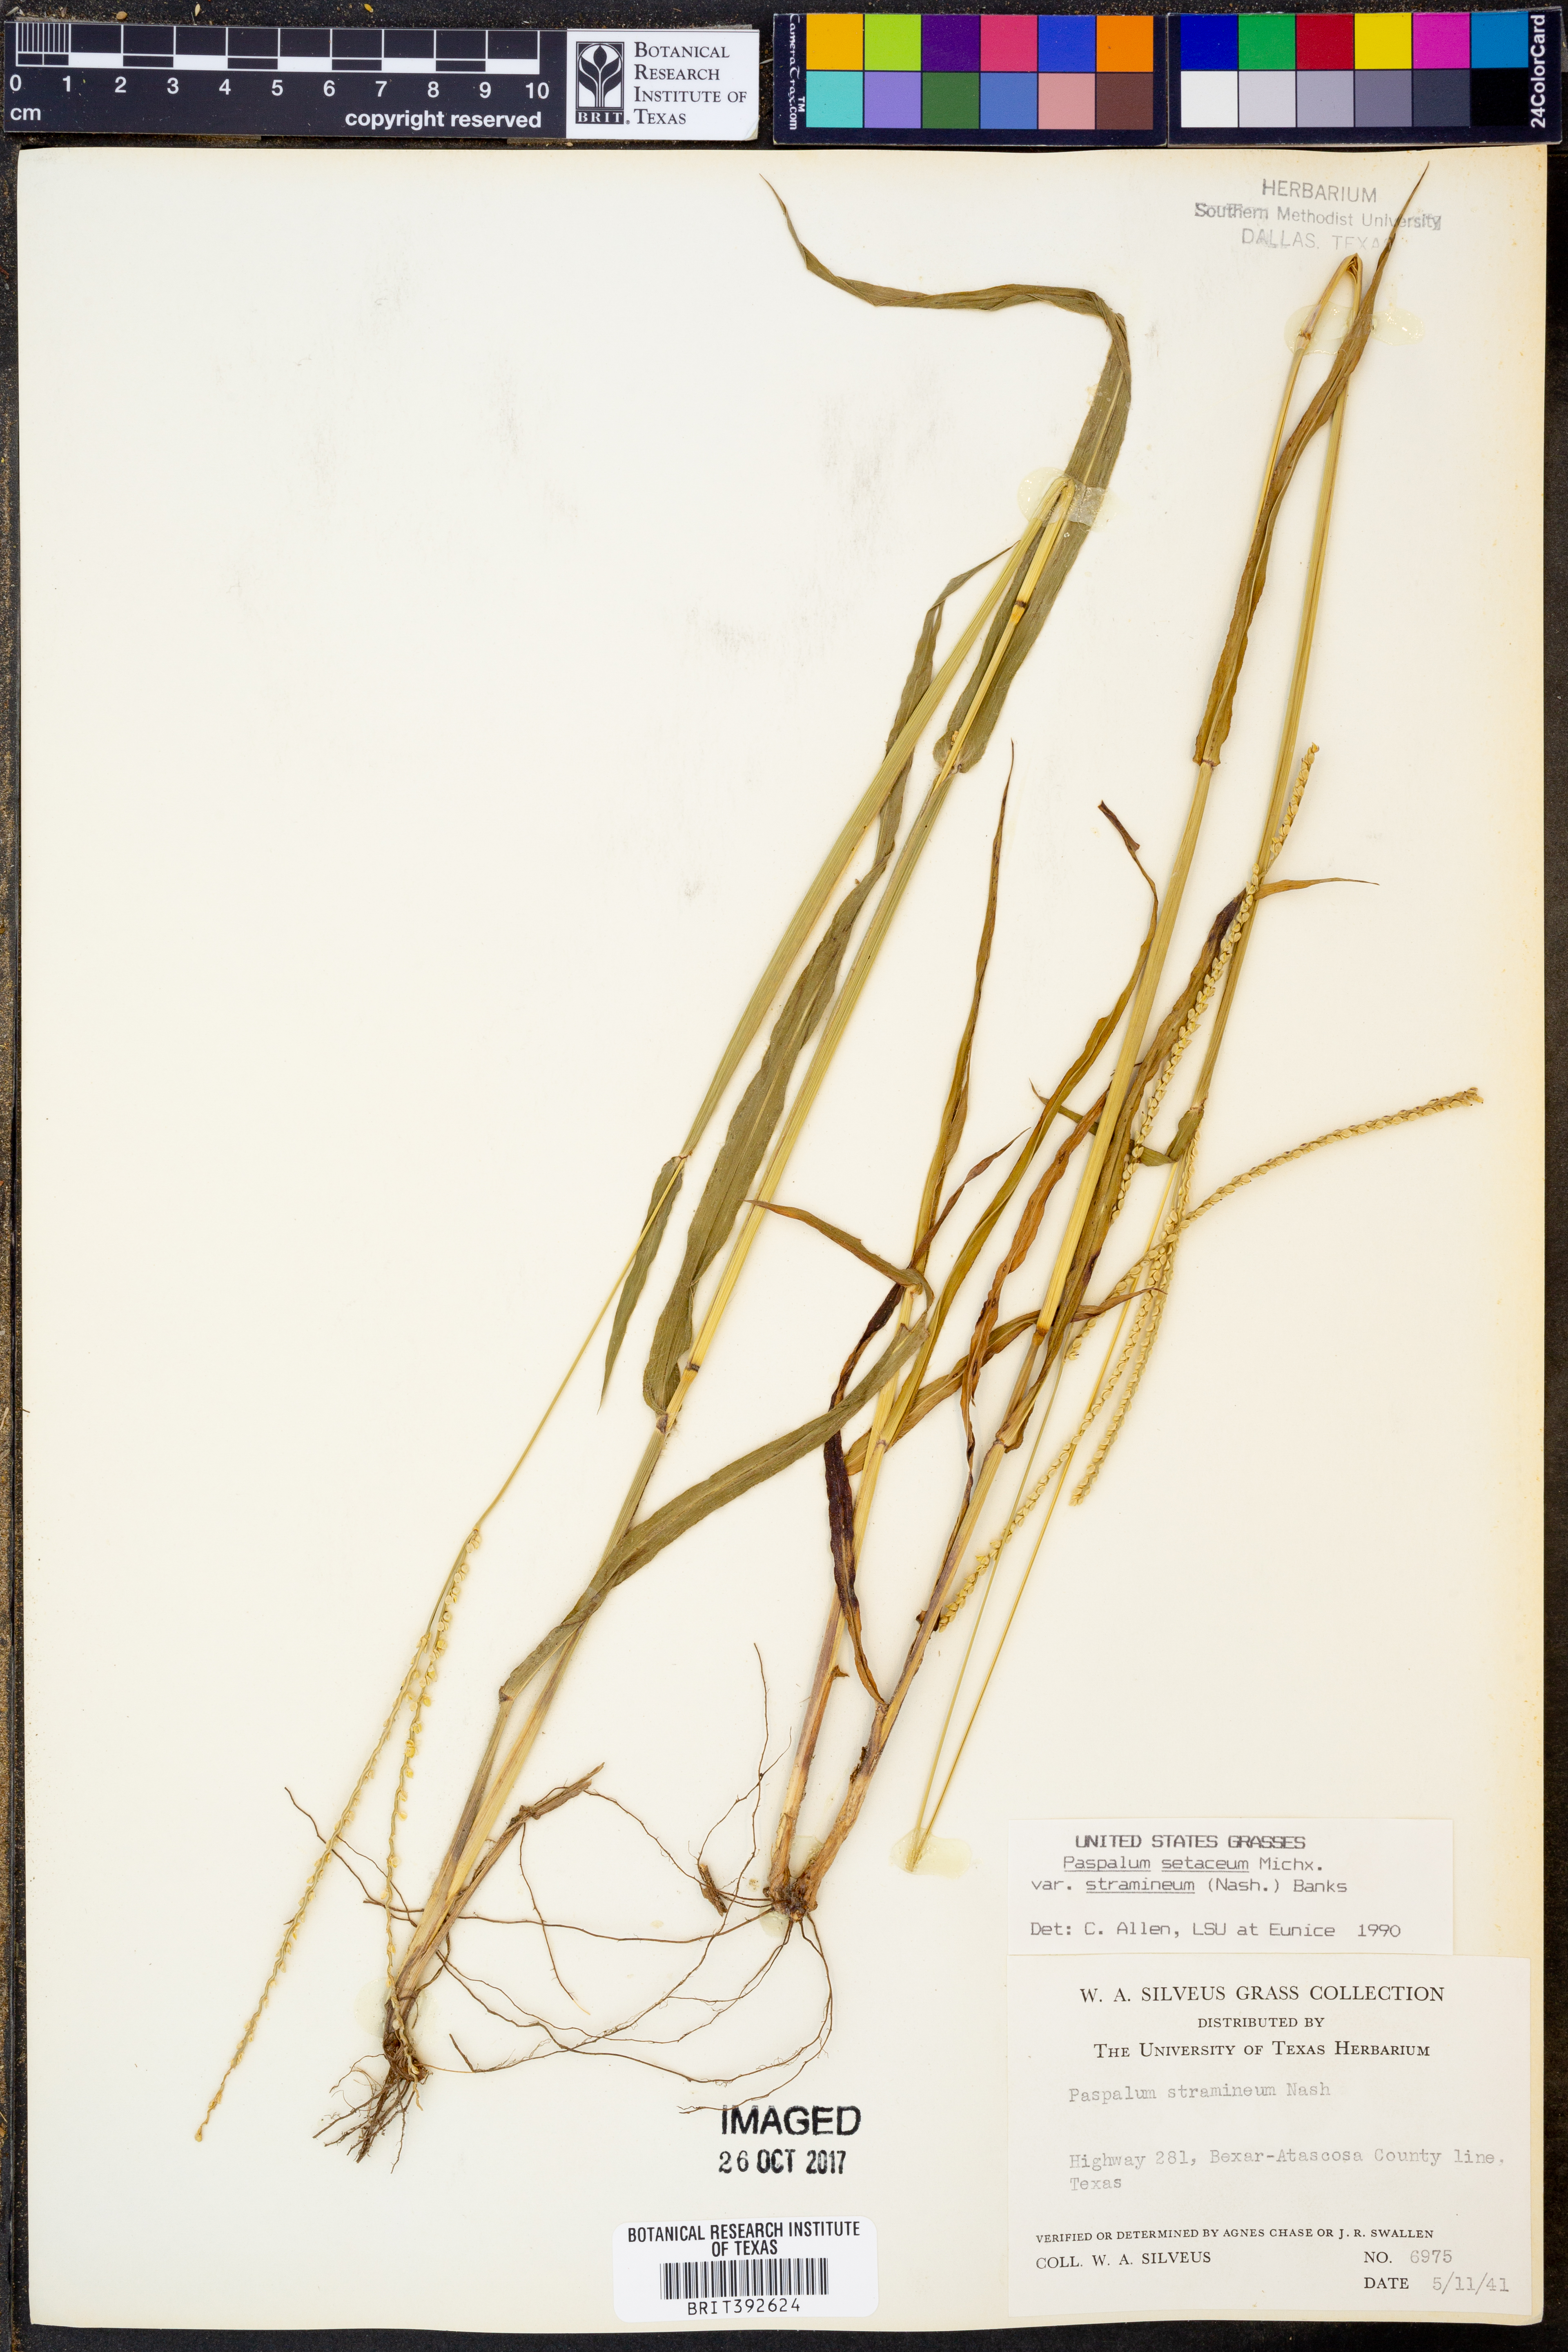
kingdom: Plantae
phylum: Tracheophyta
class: Liliopsida
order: Poales
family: Poaceae
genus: Paspalum
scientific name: Paspalum setaceum
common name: Slender paspalum
